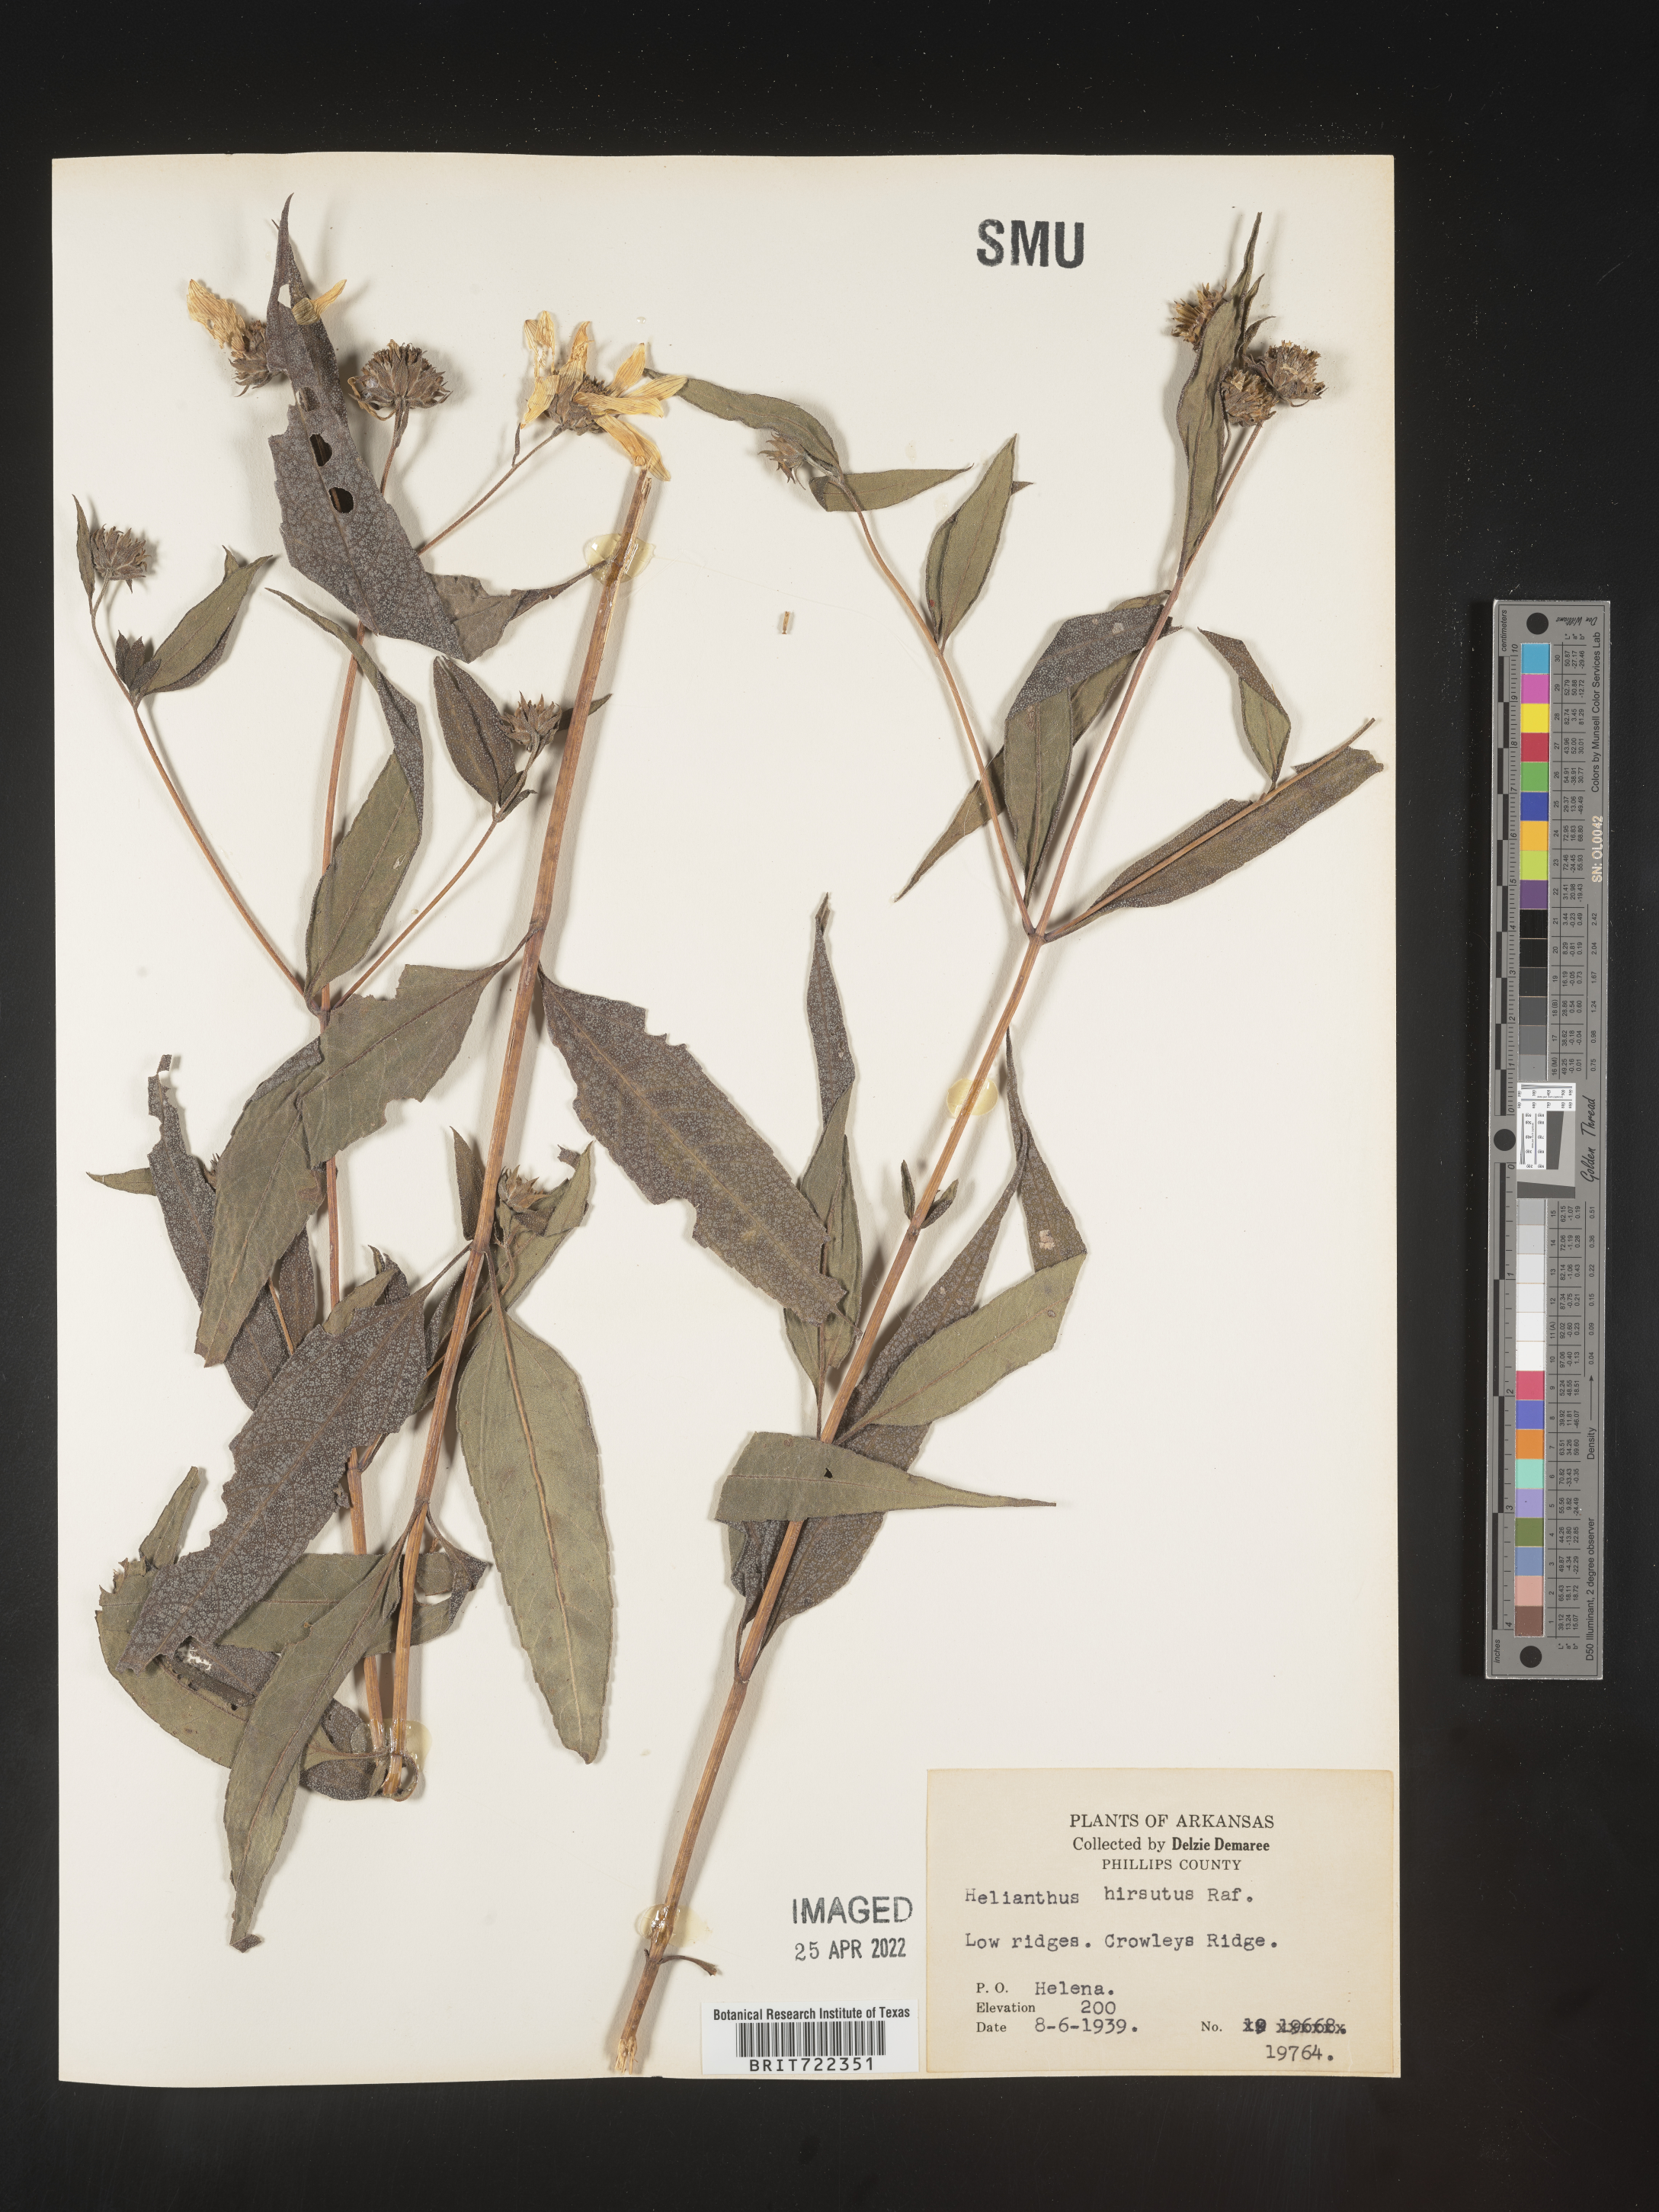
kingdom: Plantae
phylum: Tracheophyta
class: Magnoliopsida
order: Asterales
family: Asteraceae
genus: Helianthus
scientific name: Helianthus hirsutus
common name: Hairy sunflower
